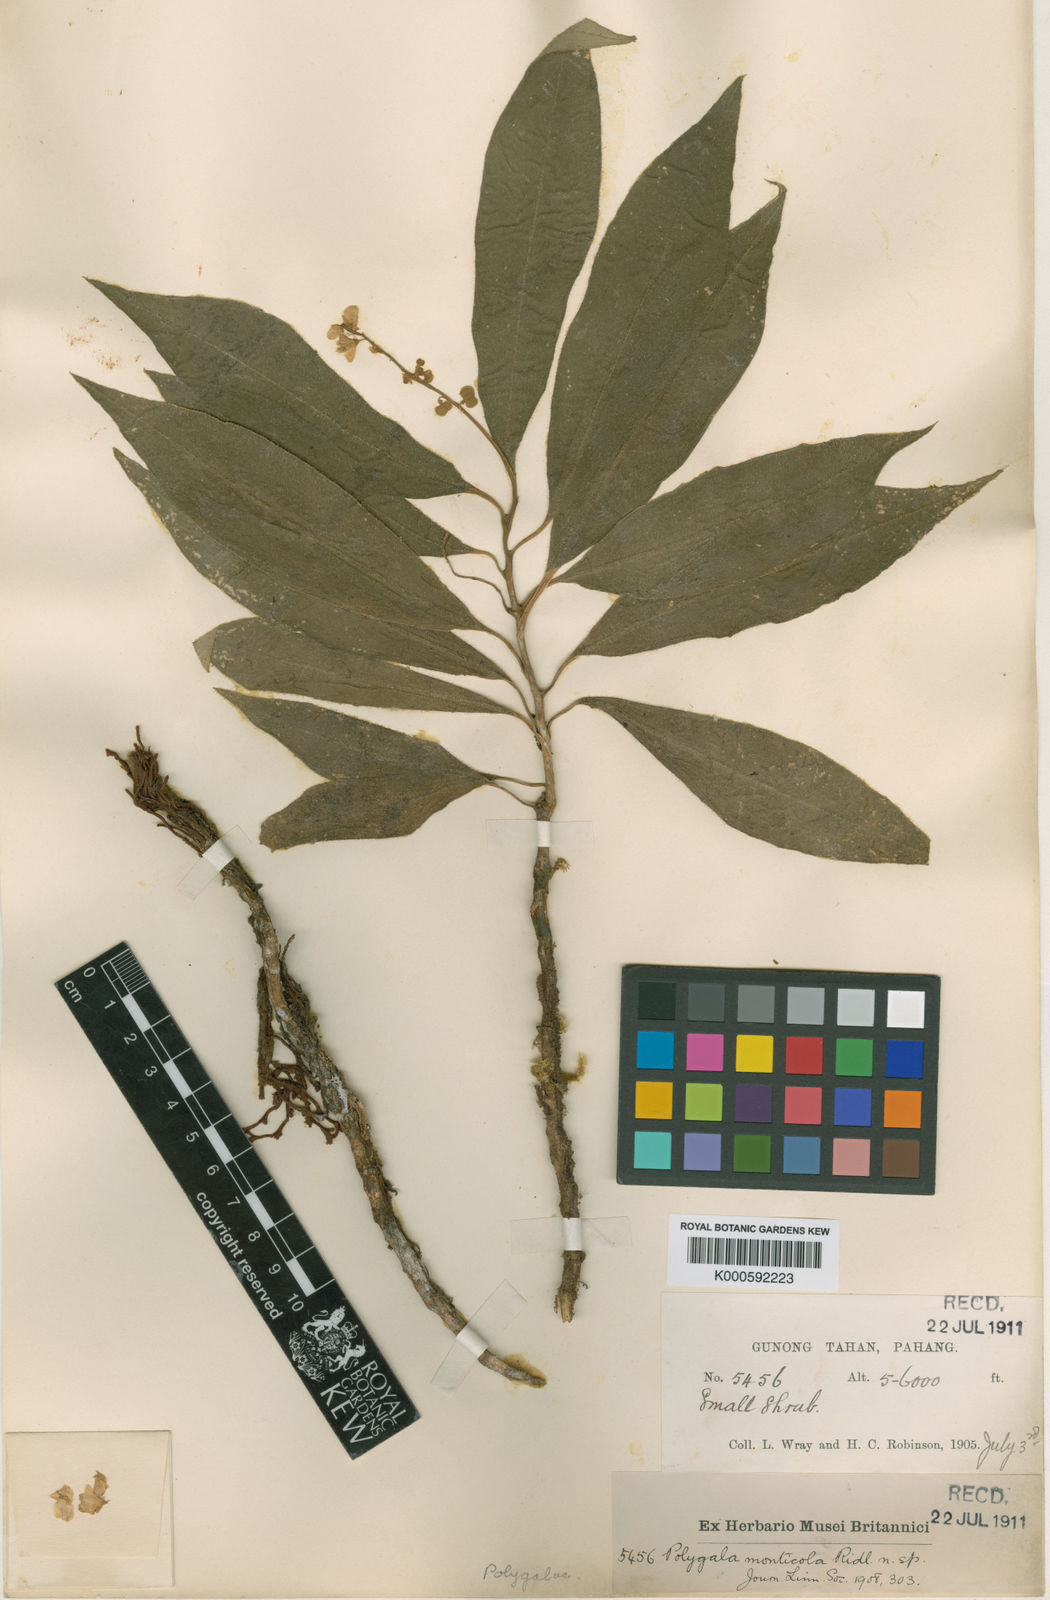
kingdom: Plantae
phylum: Tracheophyta
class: Magnoliopsida
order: Fabales
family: Polygalaceae
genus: Polygala
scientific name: Polygala oreophila
